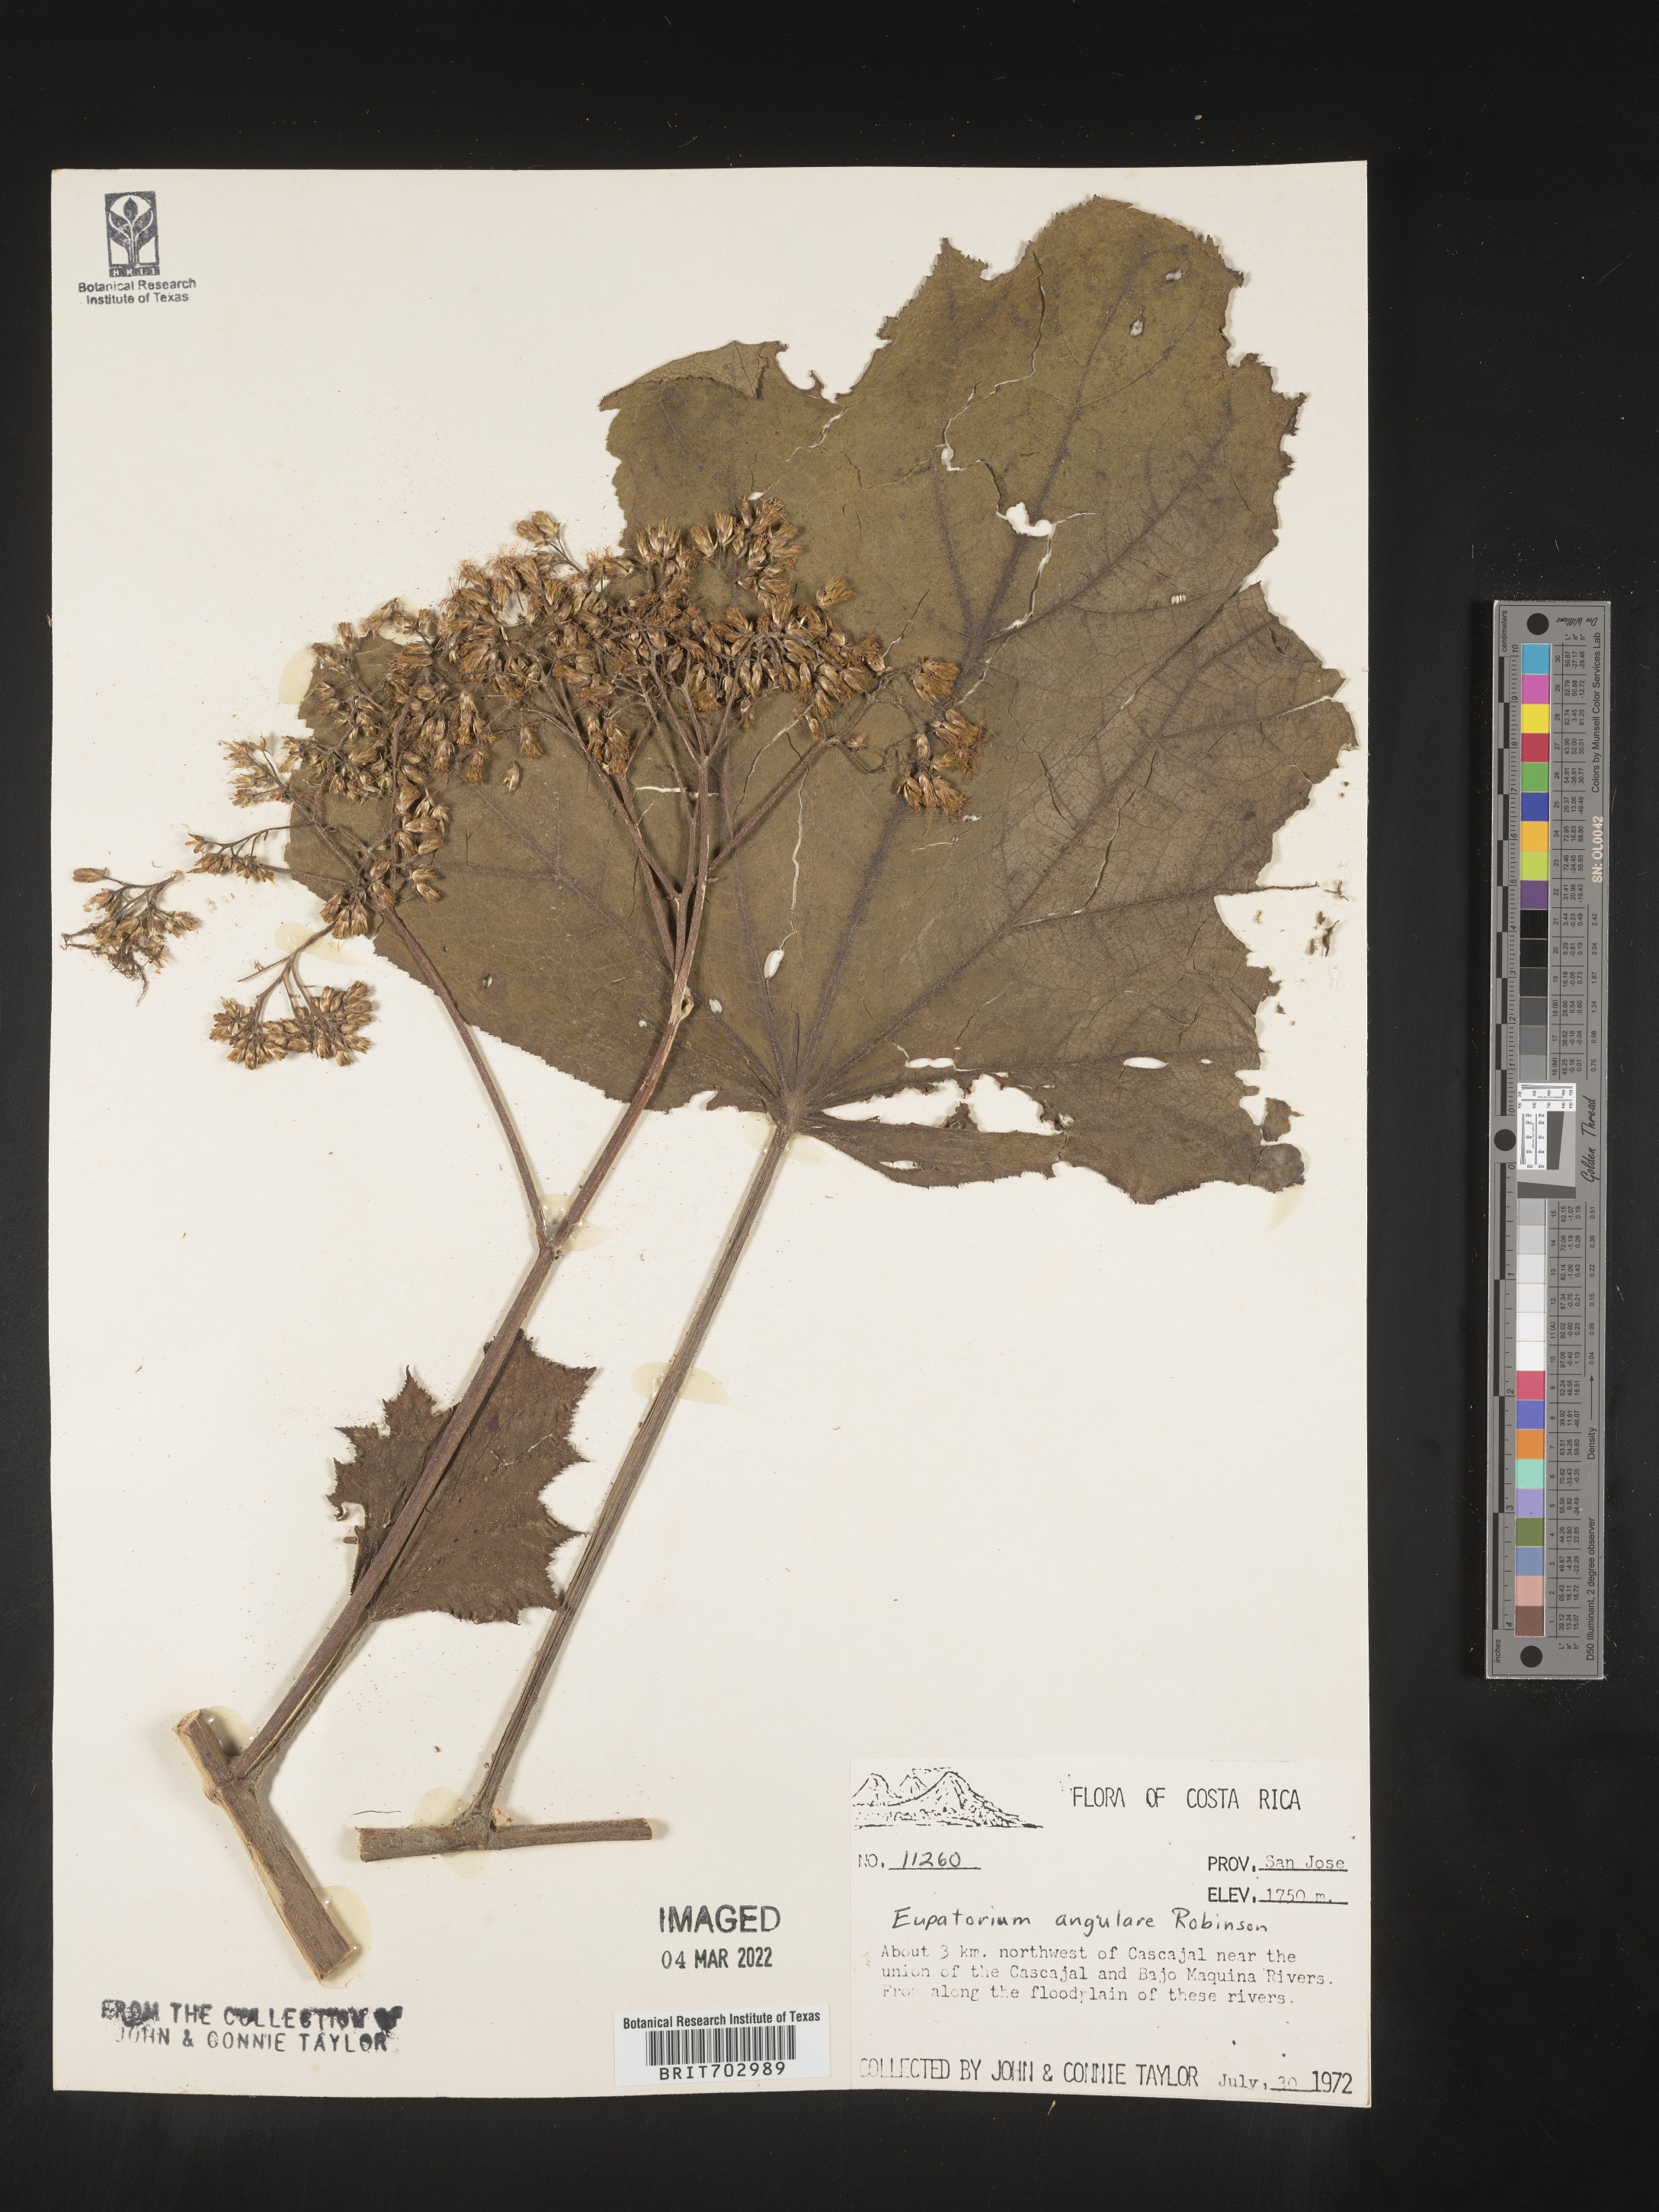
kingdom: Plantae
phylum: Tracheophyta
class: Magnoliopsida
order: Asterales
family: Asteraceae
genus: Eupatorium
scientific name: Eupatorium
